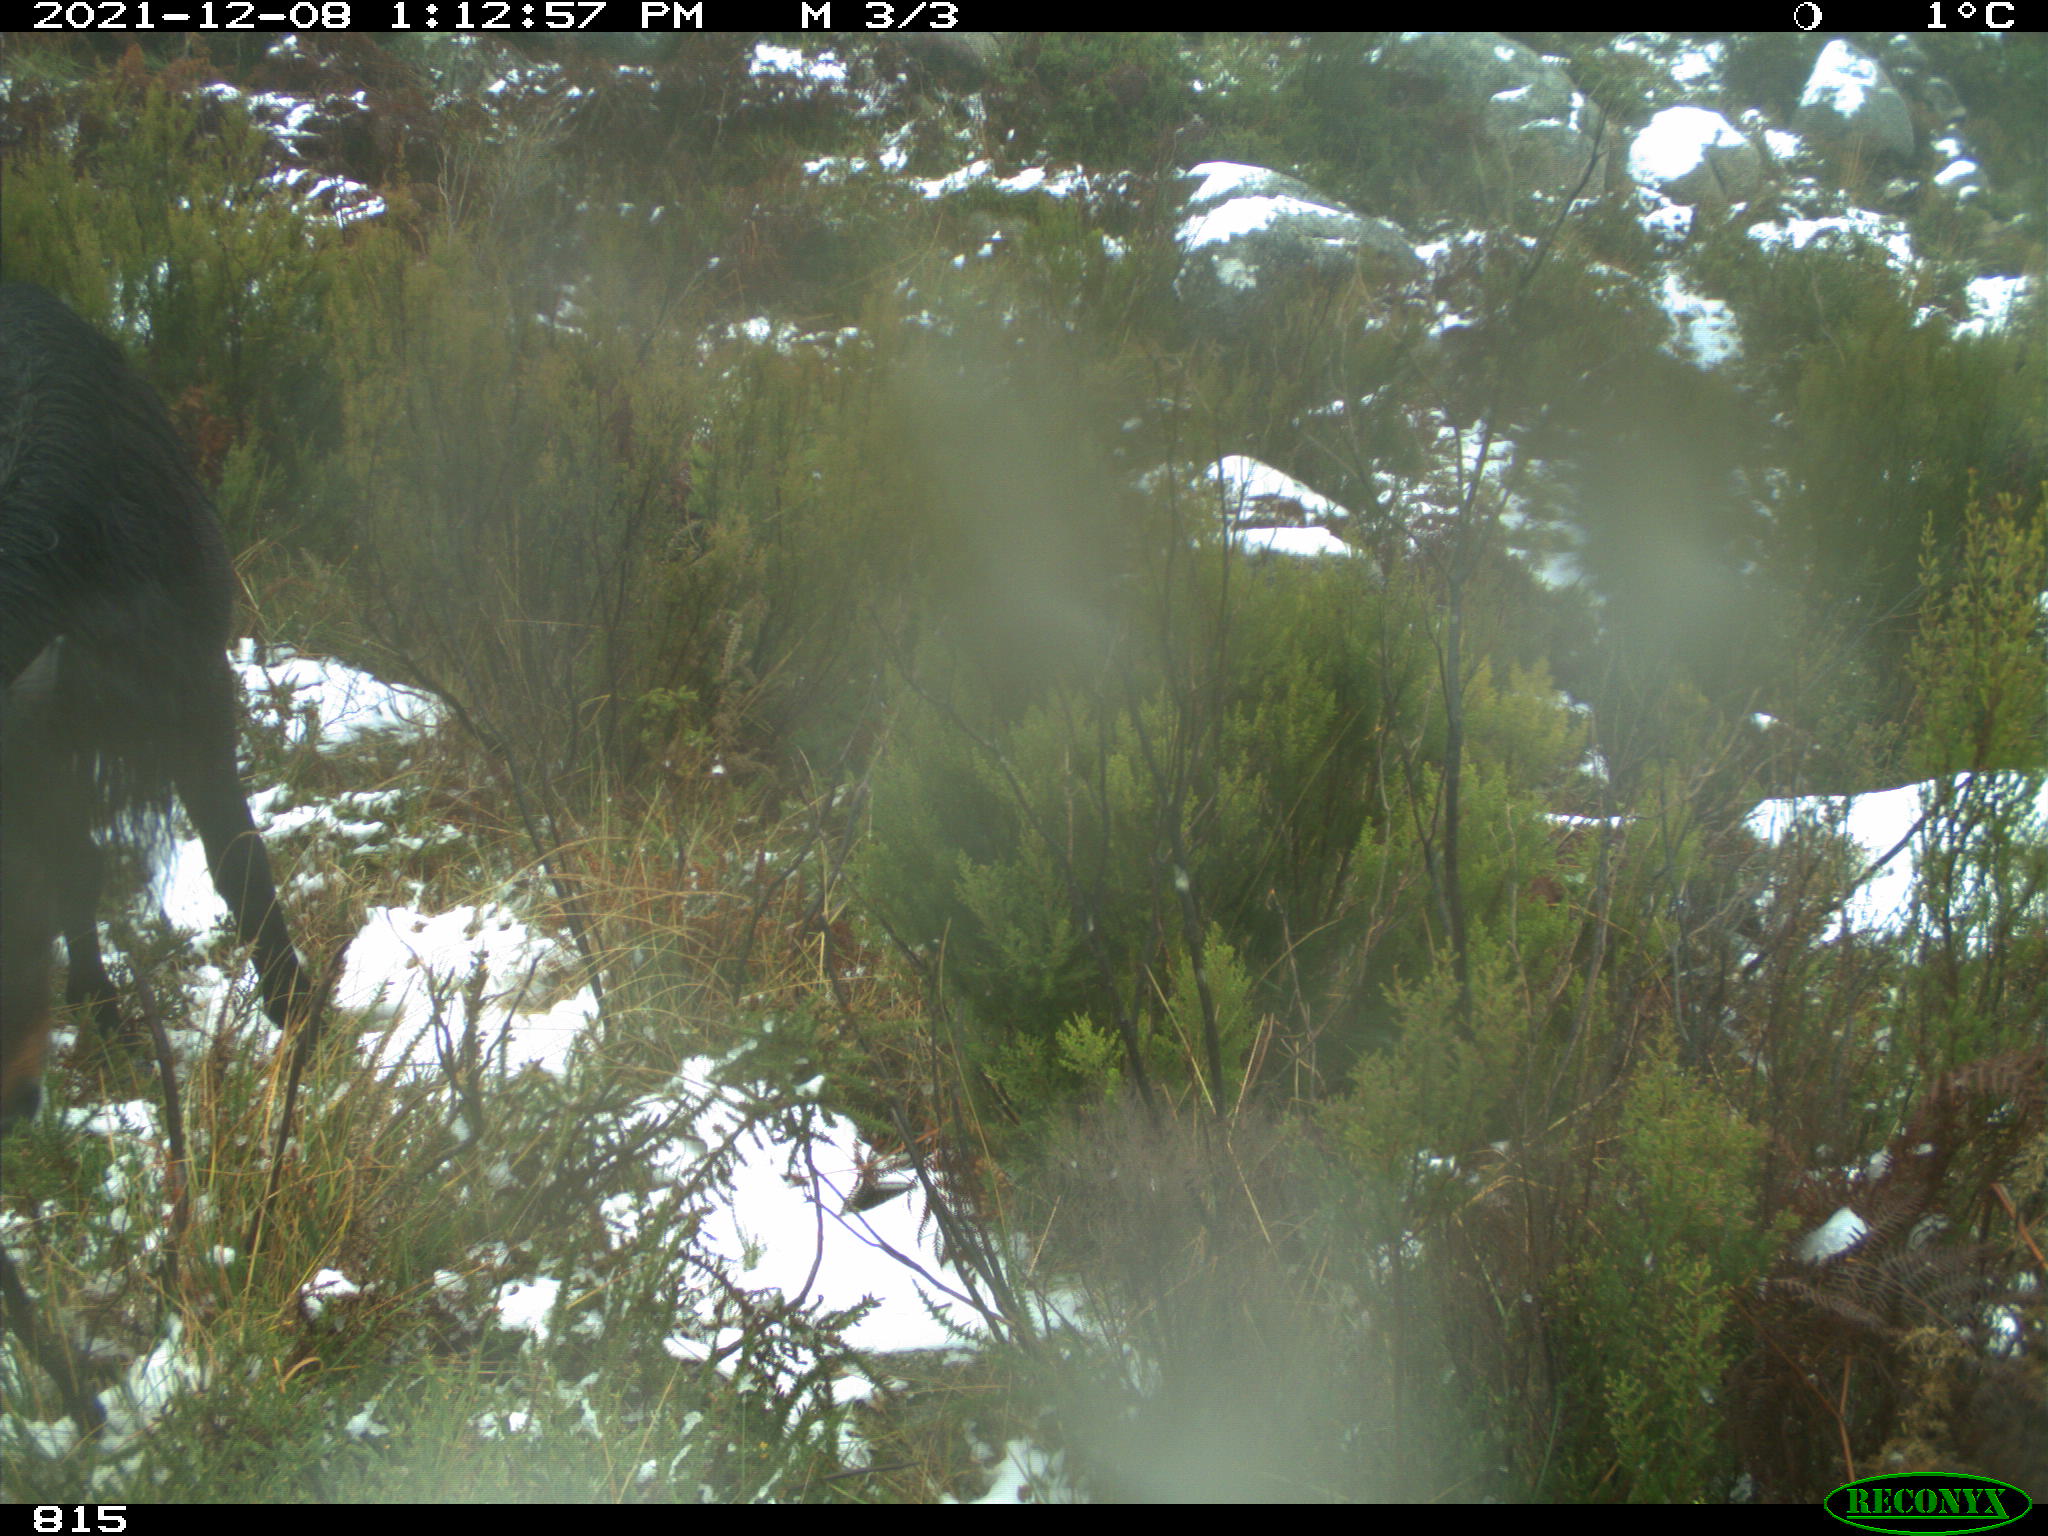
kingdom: Animalia
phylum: Chordata
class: Mammalia
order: Perissodactyla
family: Equidae
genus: Equus
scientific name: Equus caballus
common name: Horse
